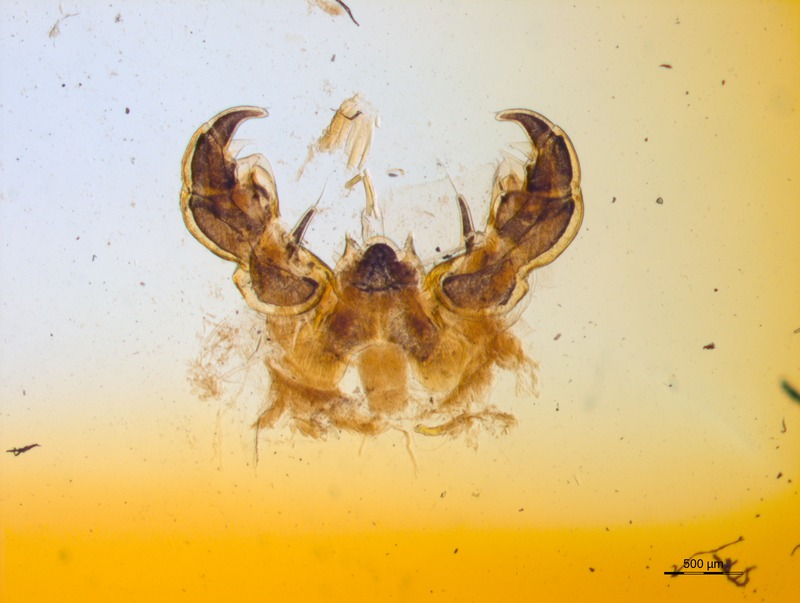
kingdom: Animalia
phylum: Arthropoda
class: Diplopoda
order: Glomerida
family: Glomeridae
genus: Glomeris
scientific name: Glomeris
